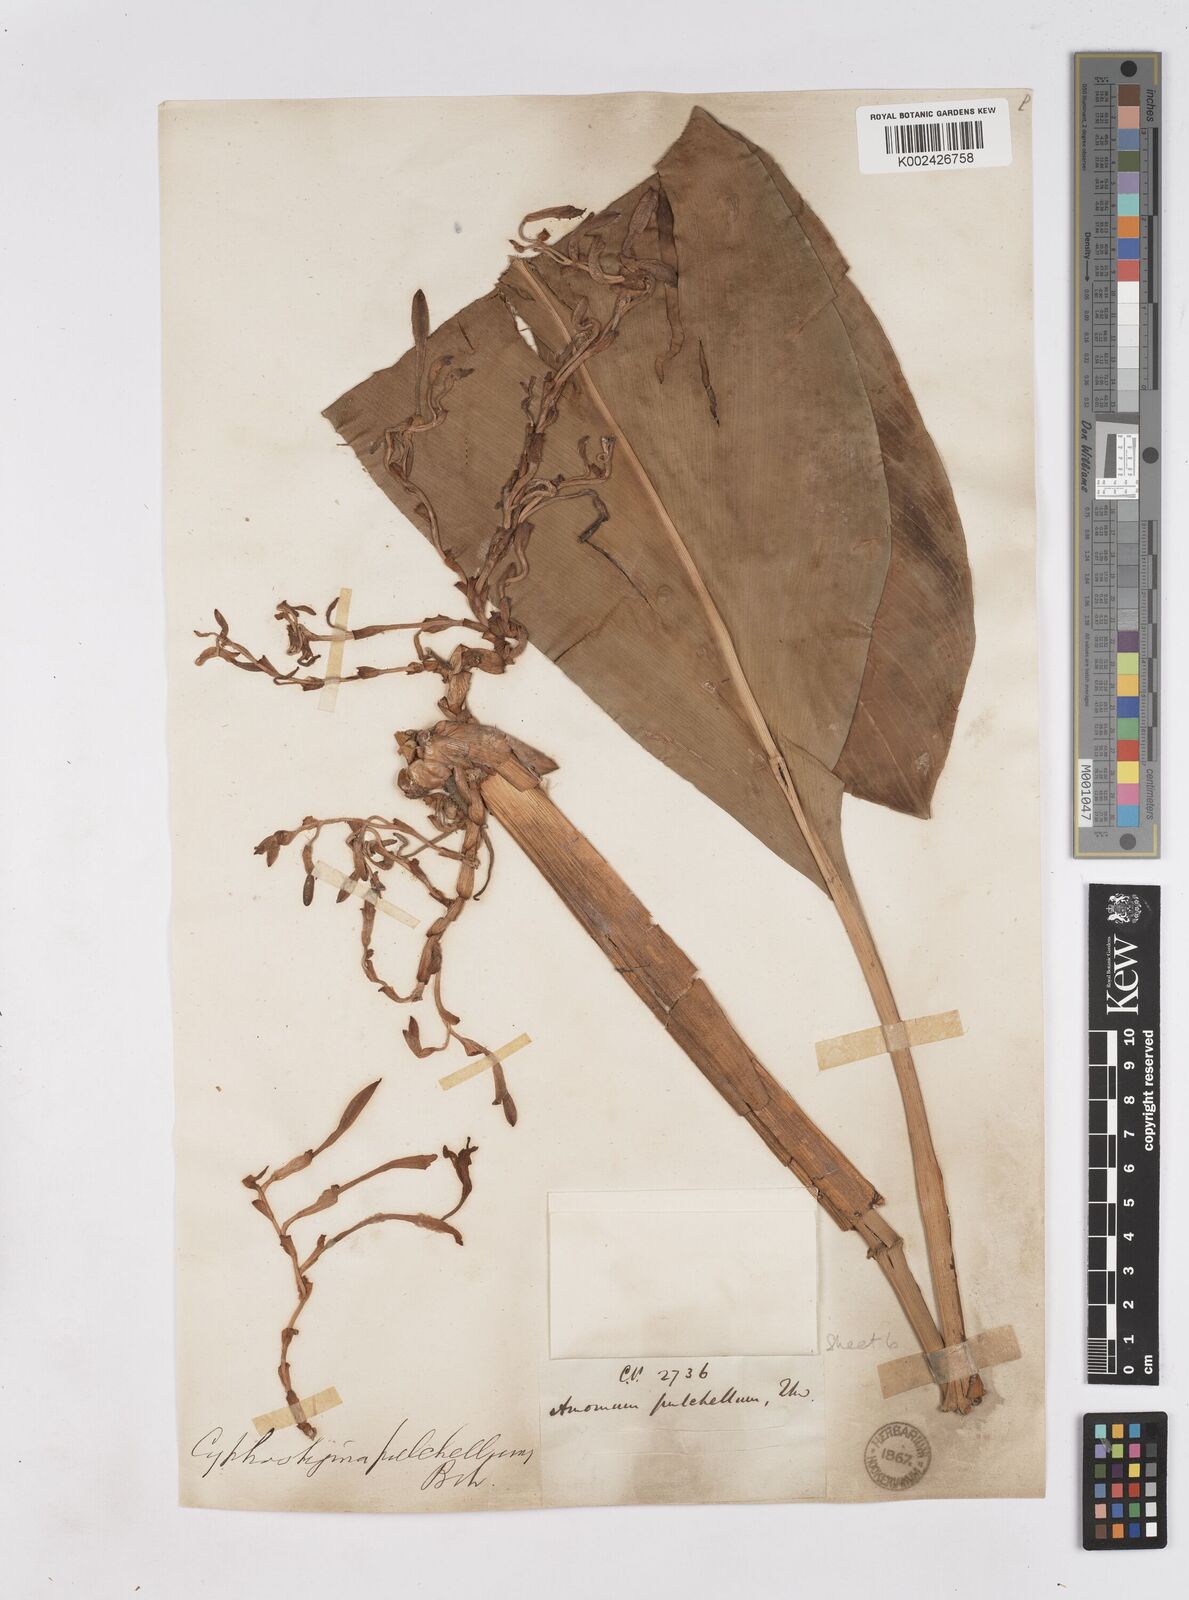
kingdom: Plantae
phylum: Tracheophyta
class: Liliopsida
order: Zingiberales
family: Zingiberaceae
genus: Cyphostigma
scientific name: Cyphostigma pulchellum
